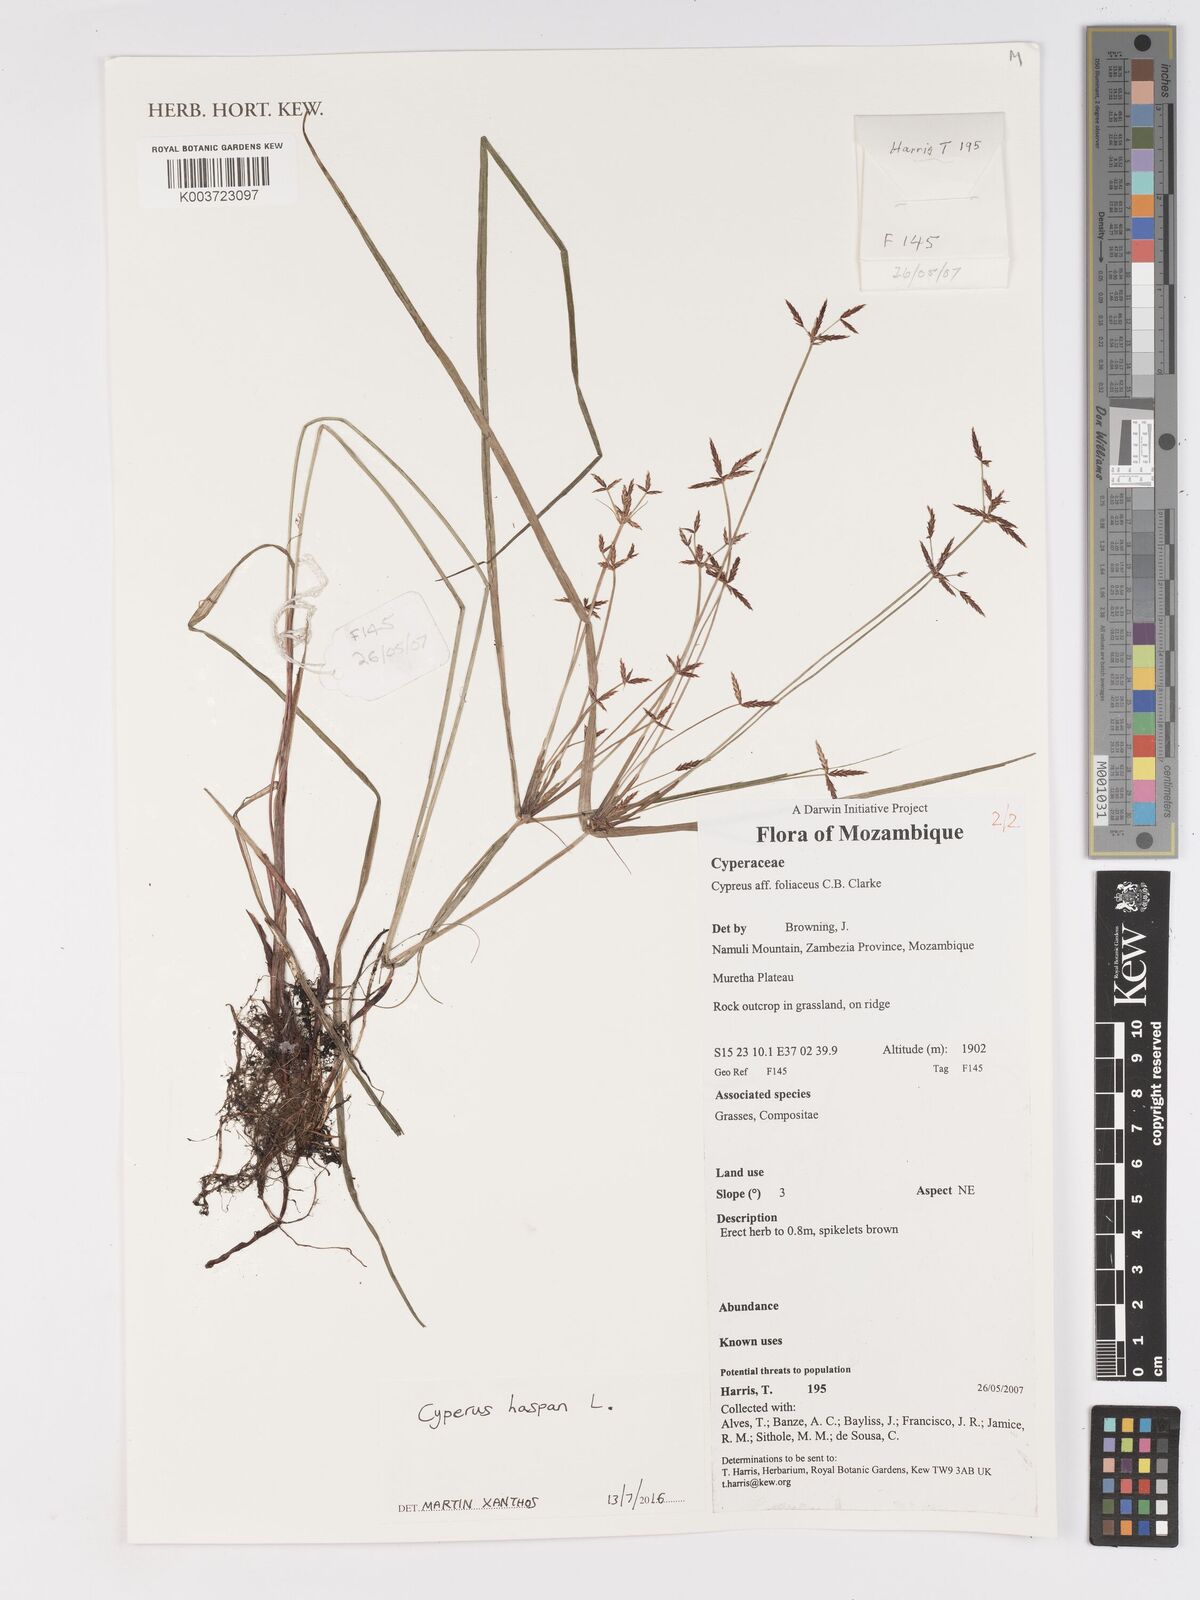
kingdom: Plantae
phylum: Tracheophyta
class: Liliopsida
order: Poales
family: Cyperaceae
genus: Cyperus
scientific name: Cyperus haspan
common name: Haspan flatsedge
